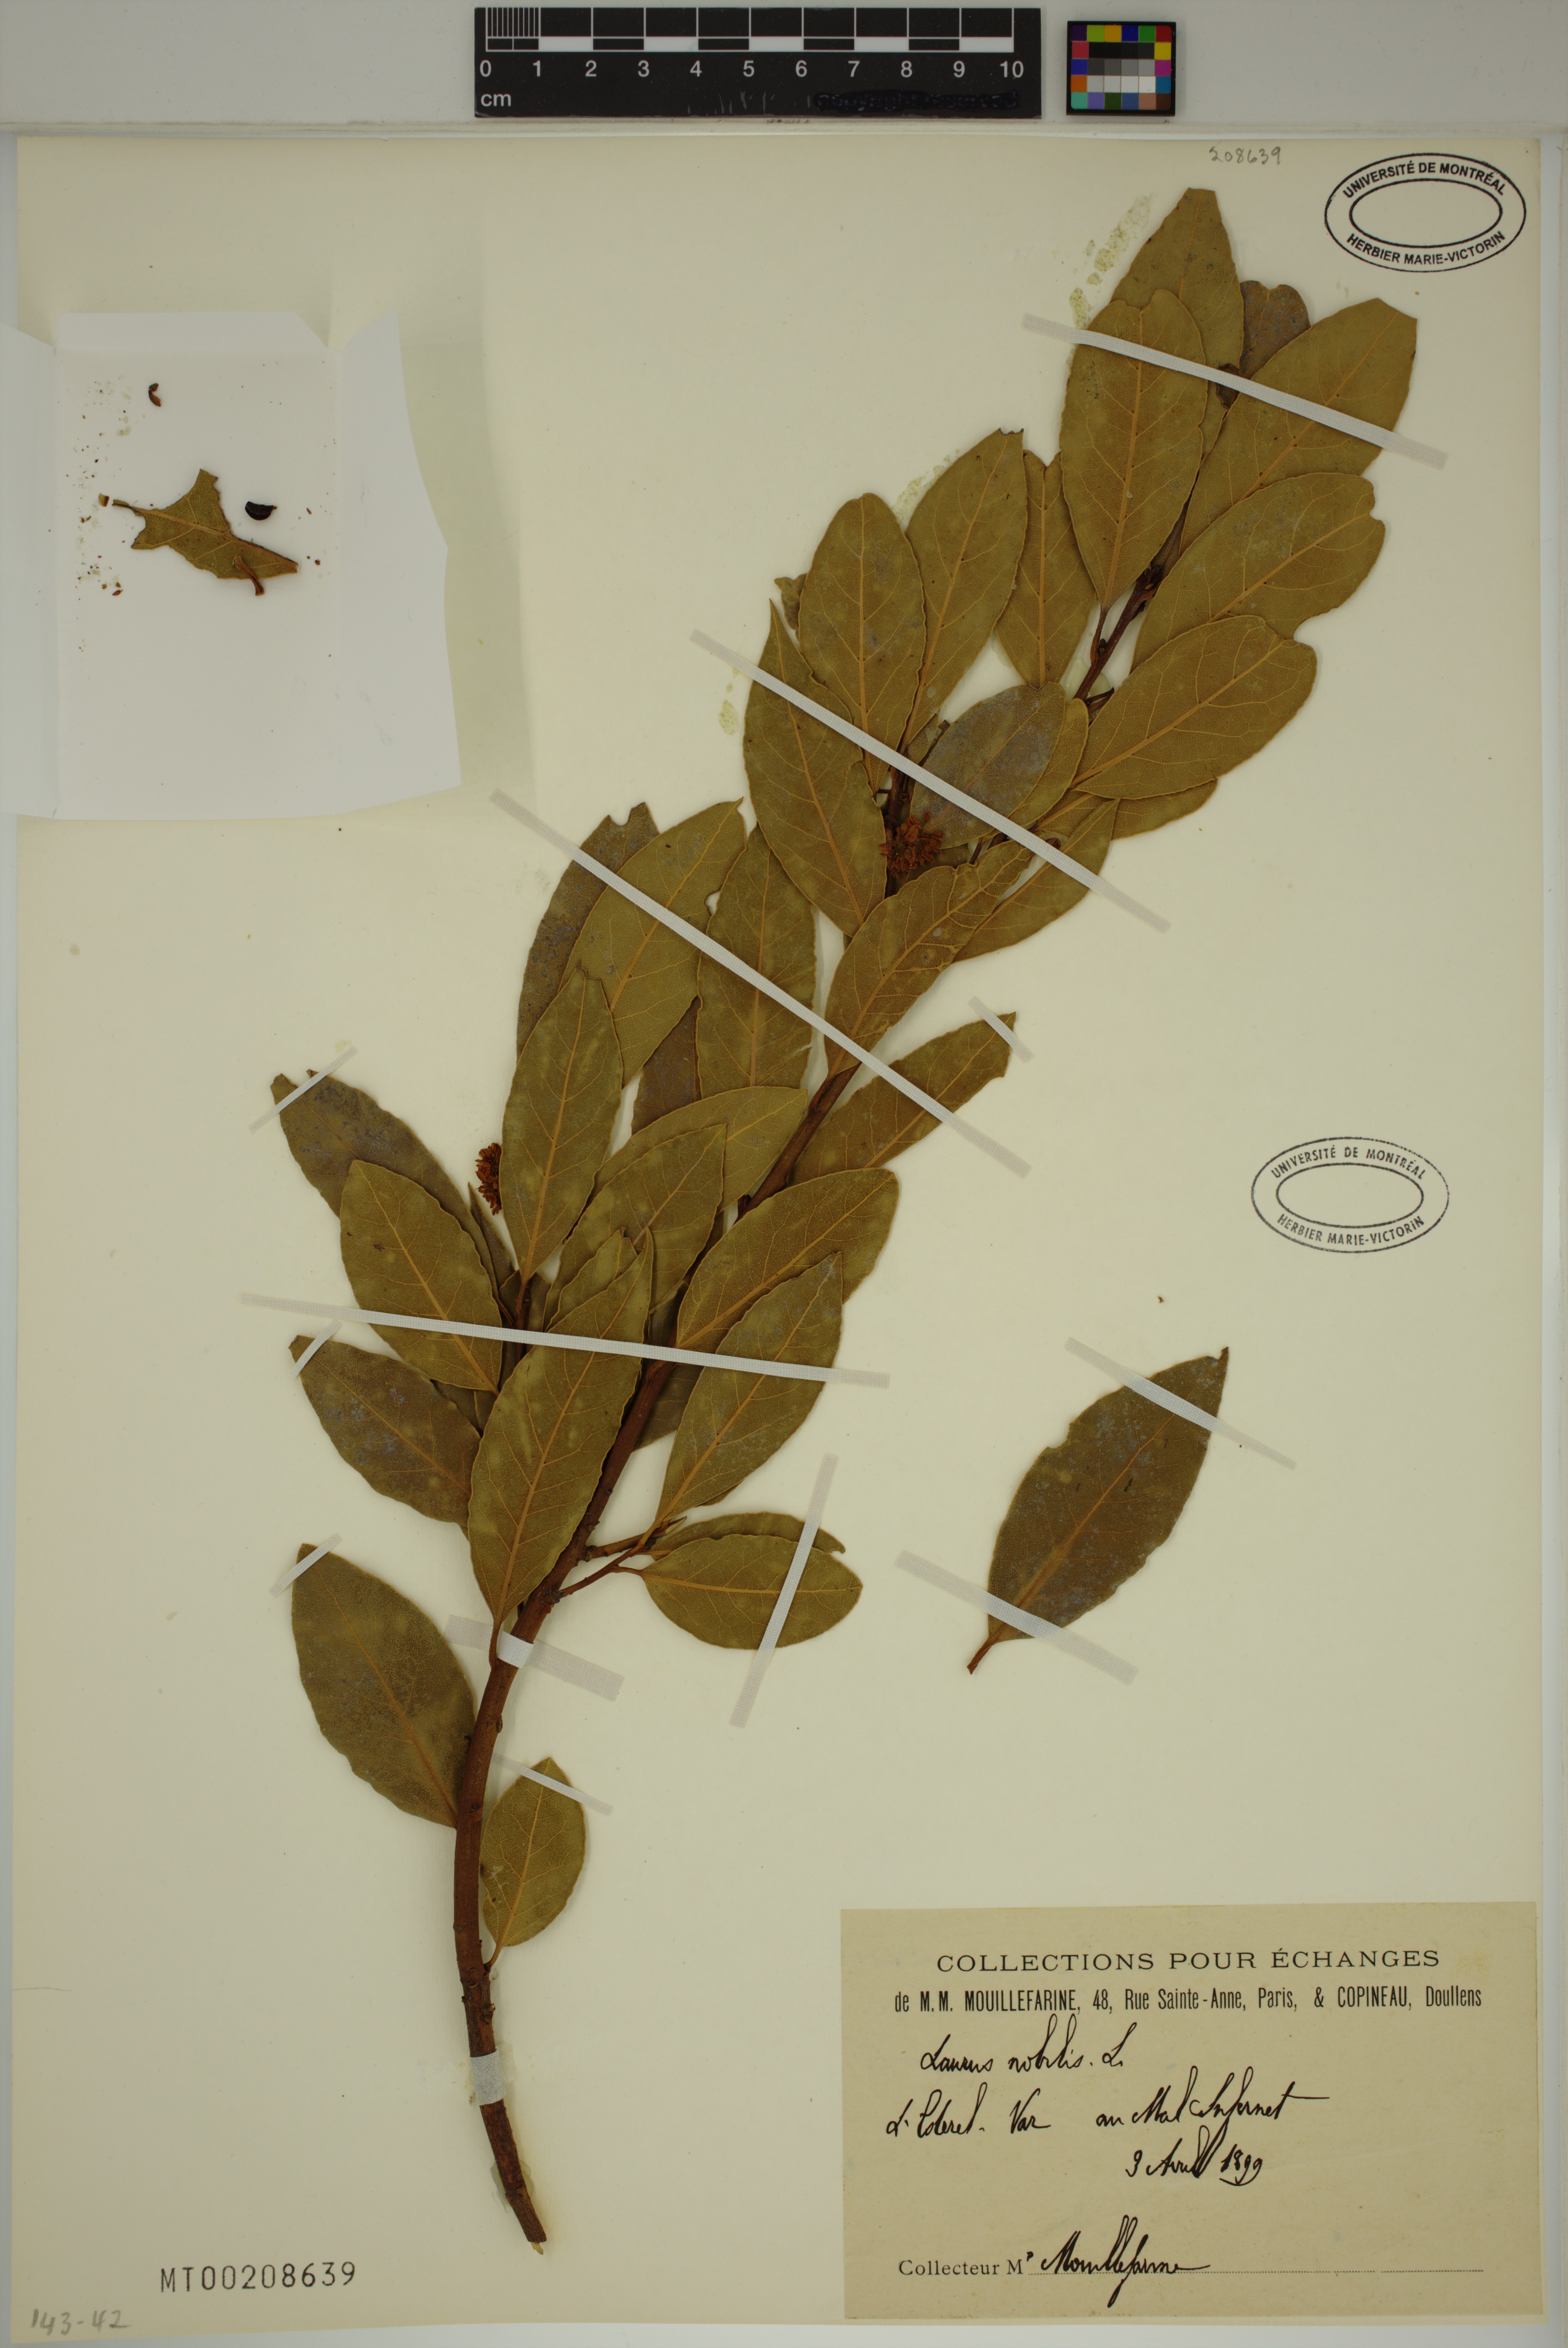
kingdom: Plantae
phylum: Tracheophyta
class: Magnoliopsida
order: Laurales
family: Lauraceae
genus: Laurus
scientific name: Laurus nobilis
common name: Bay
